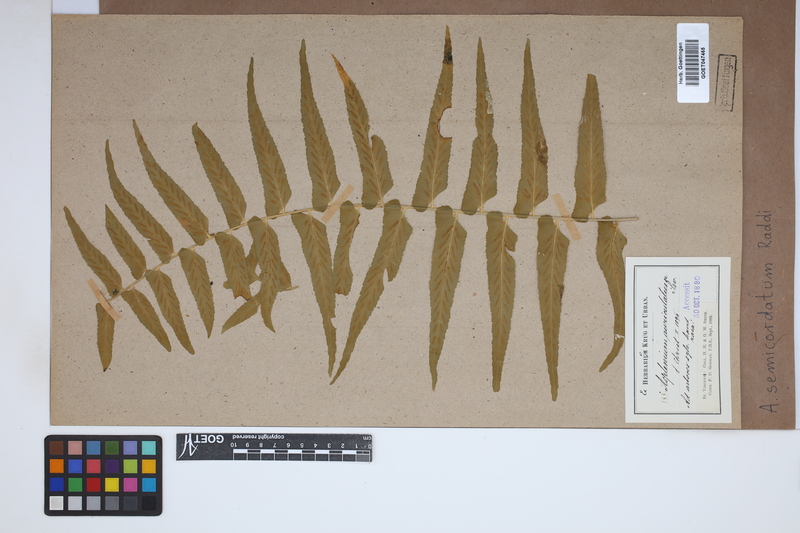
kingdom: Plantae
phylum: Tracheophyta
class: Polypodiopsida
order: Polypodiales
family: Aspleniaceae
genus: Asplenium
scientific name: Asplenium auriculatum
